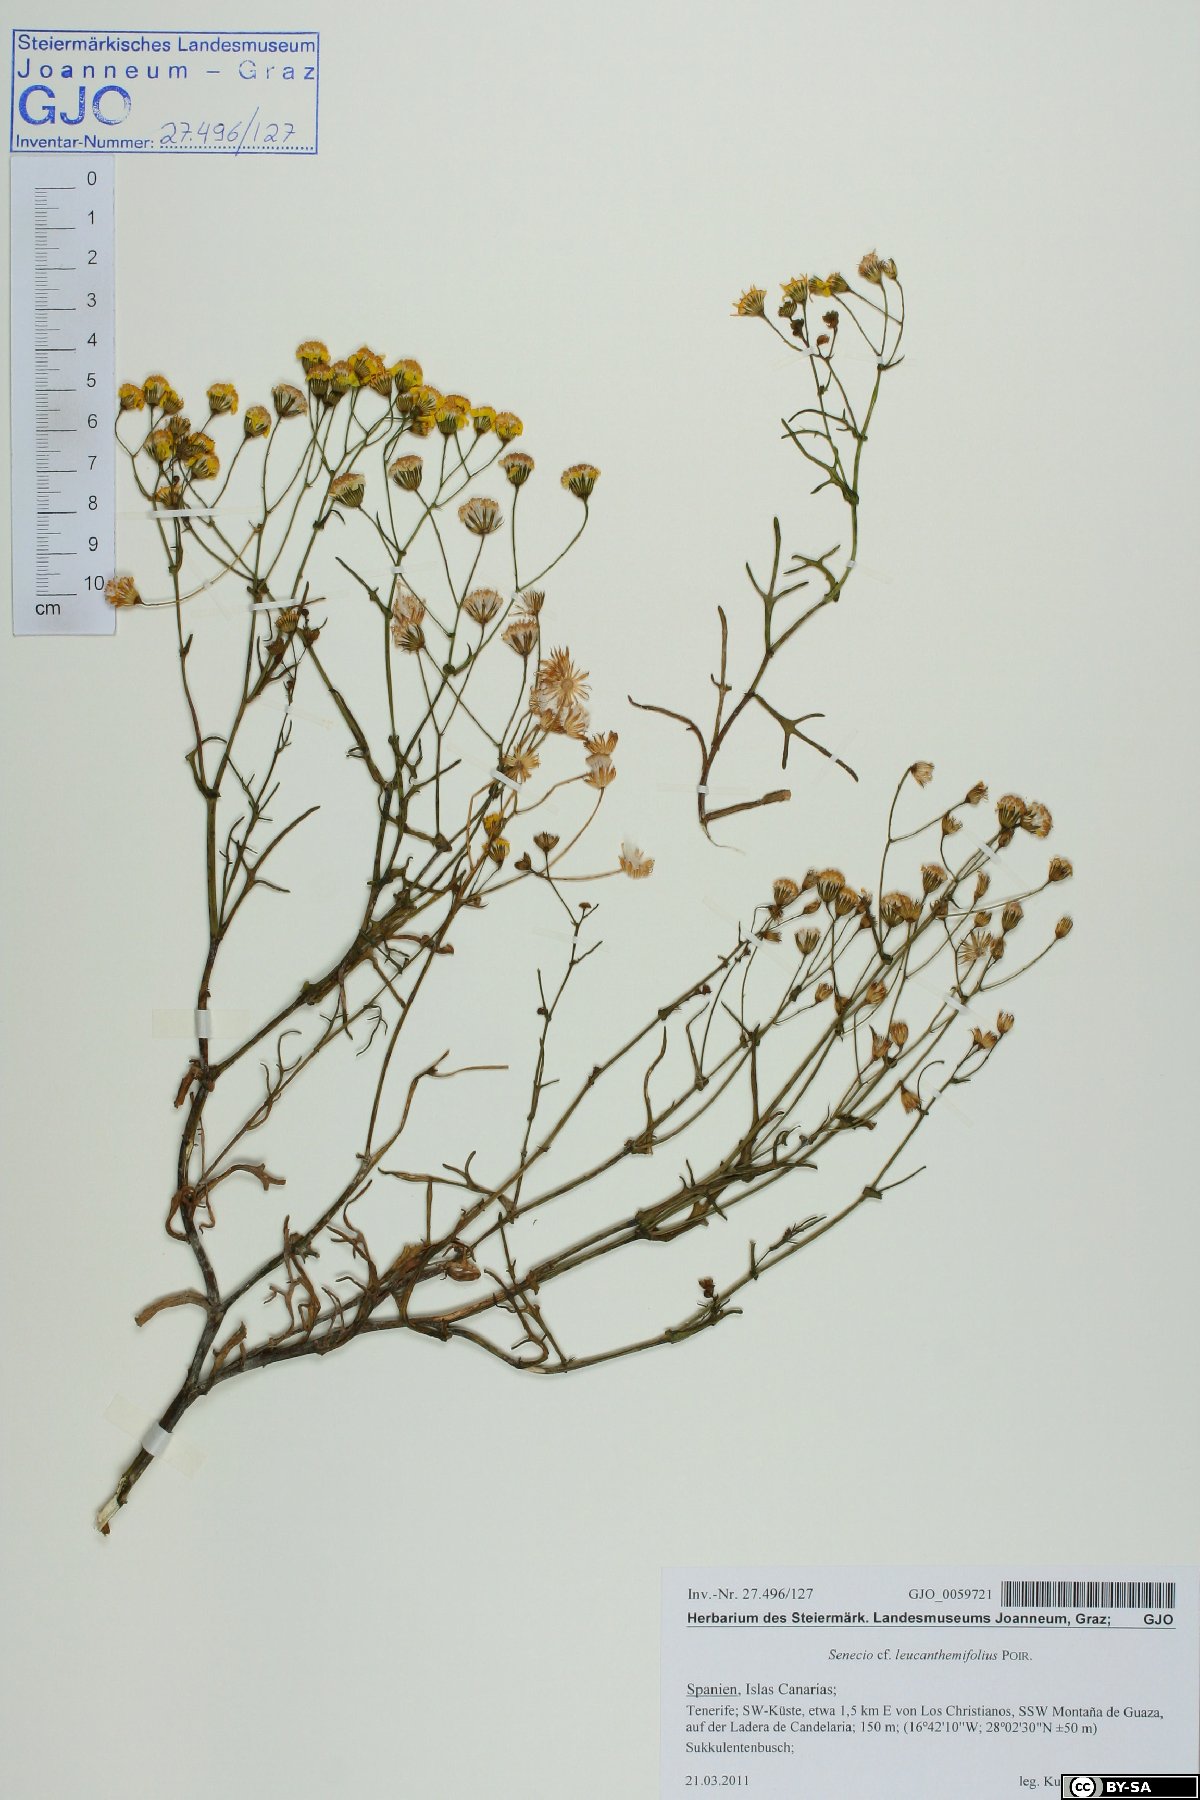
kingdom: Plantae
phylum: Tracheophyta
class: Magnoliopsida
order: Asterales
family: Asteraceae
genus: Senecio
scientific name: Senecio leucanthemifolius
